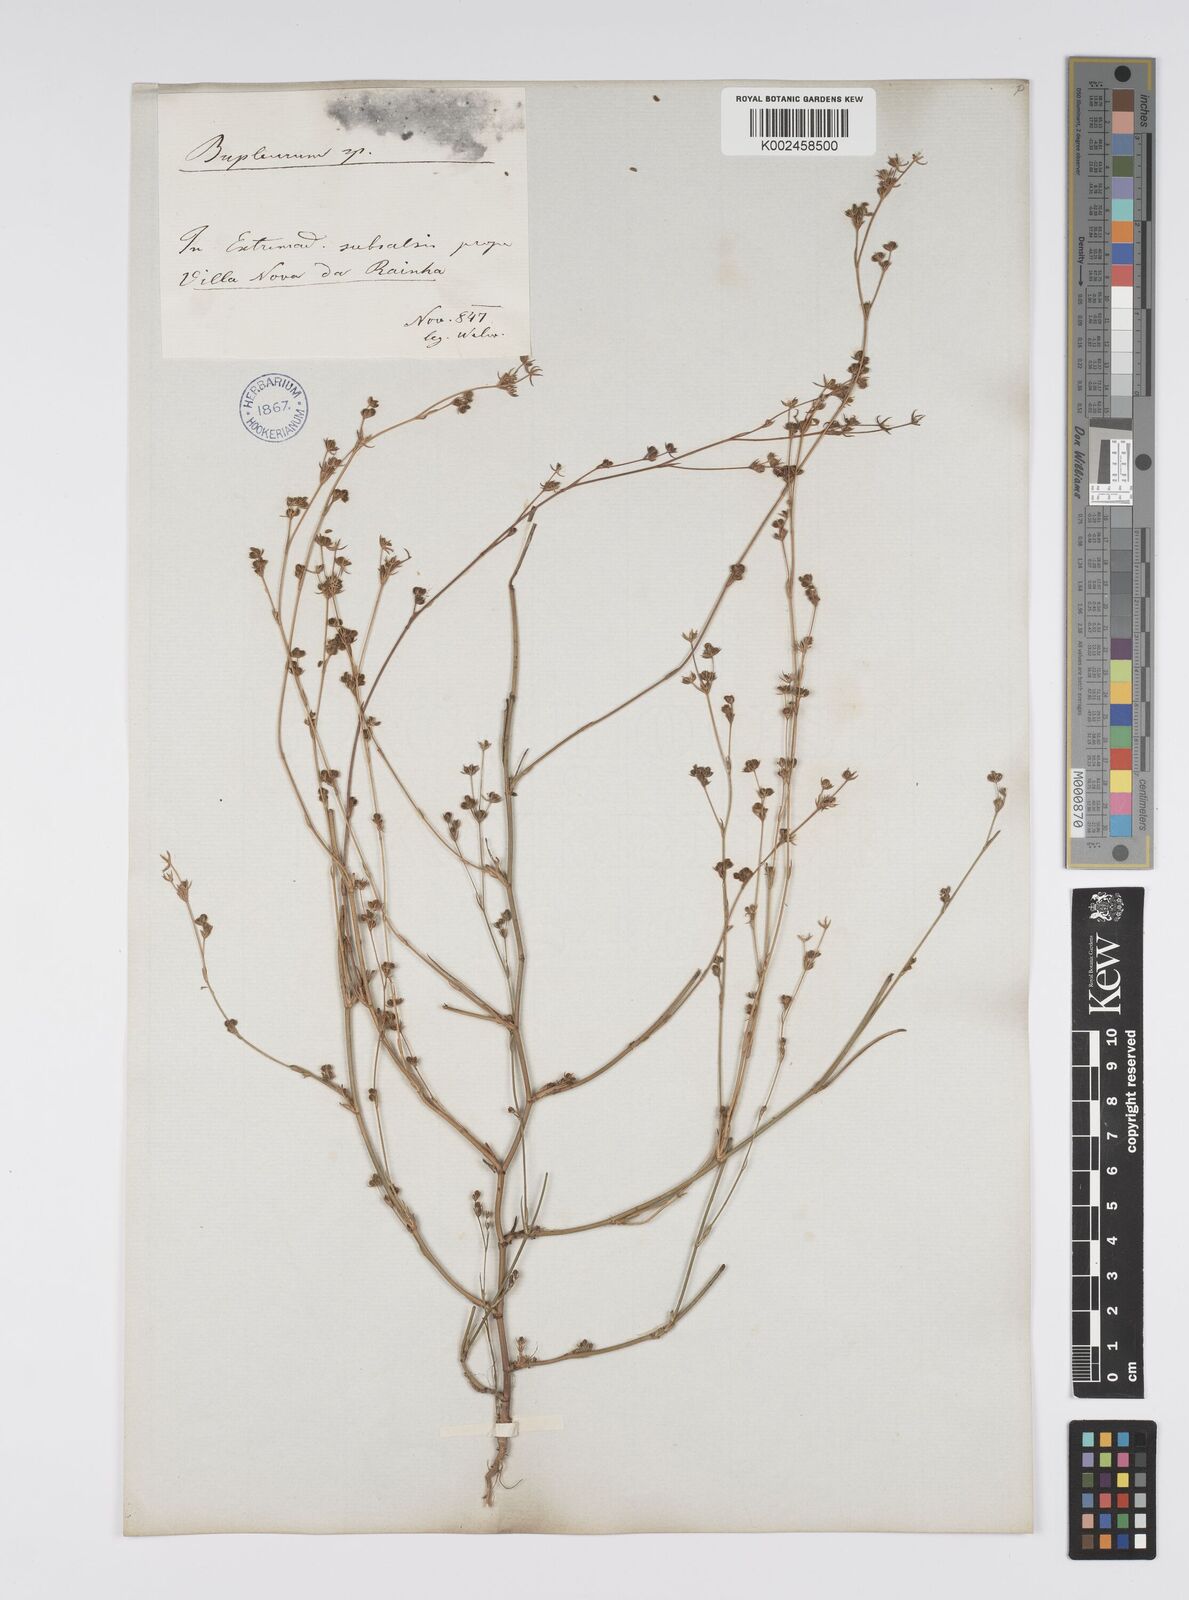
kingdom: Plantae
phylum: Tracheophyta
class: Magnoliopsida
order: Apiales
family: Apiaceae
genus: Bupleurum
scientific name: Bupleurum tenuissimum
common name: Slender hare's-ear
